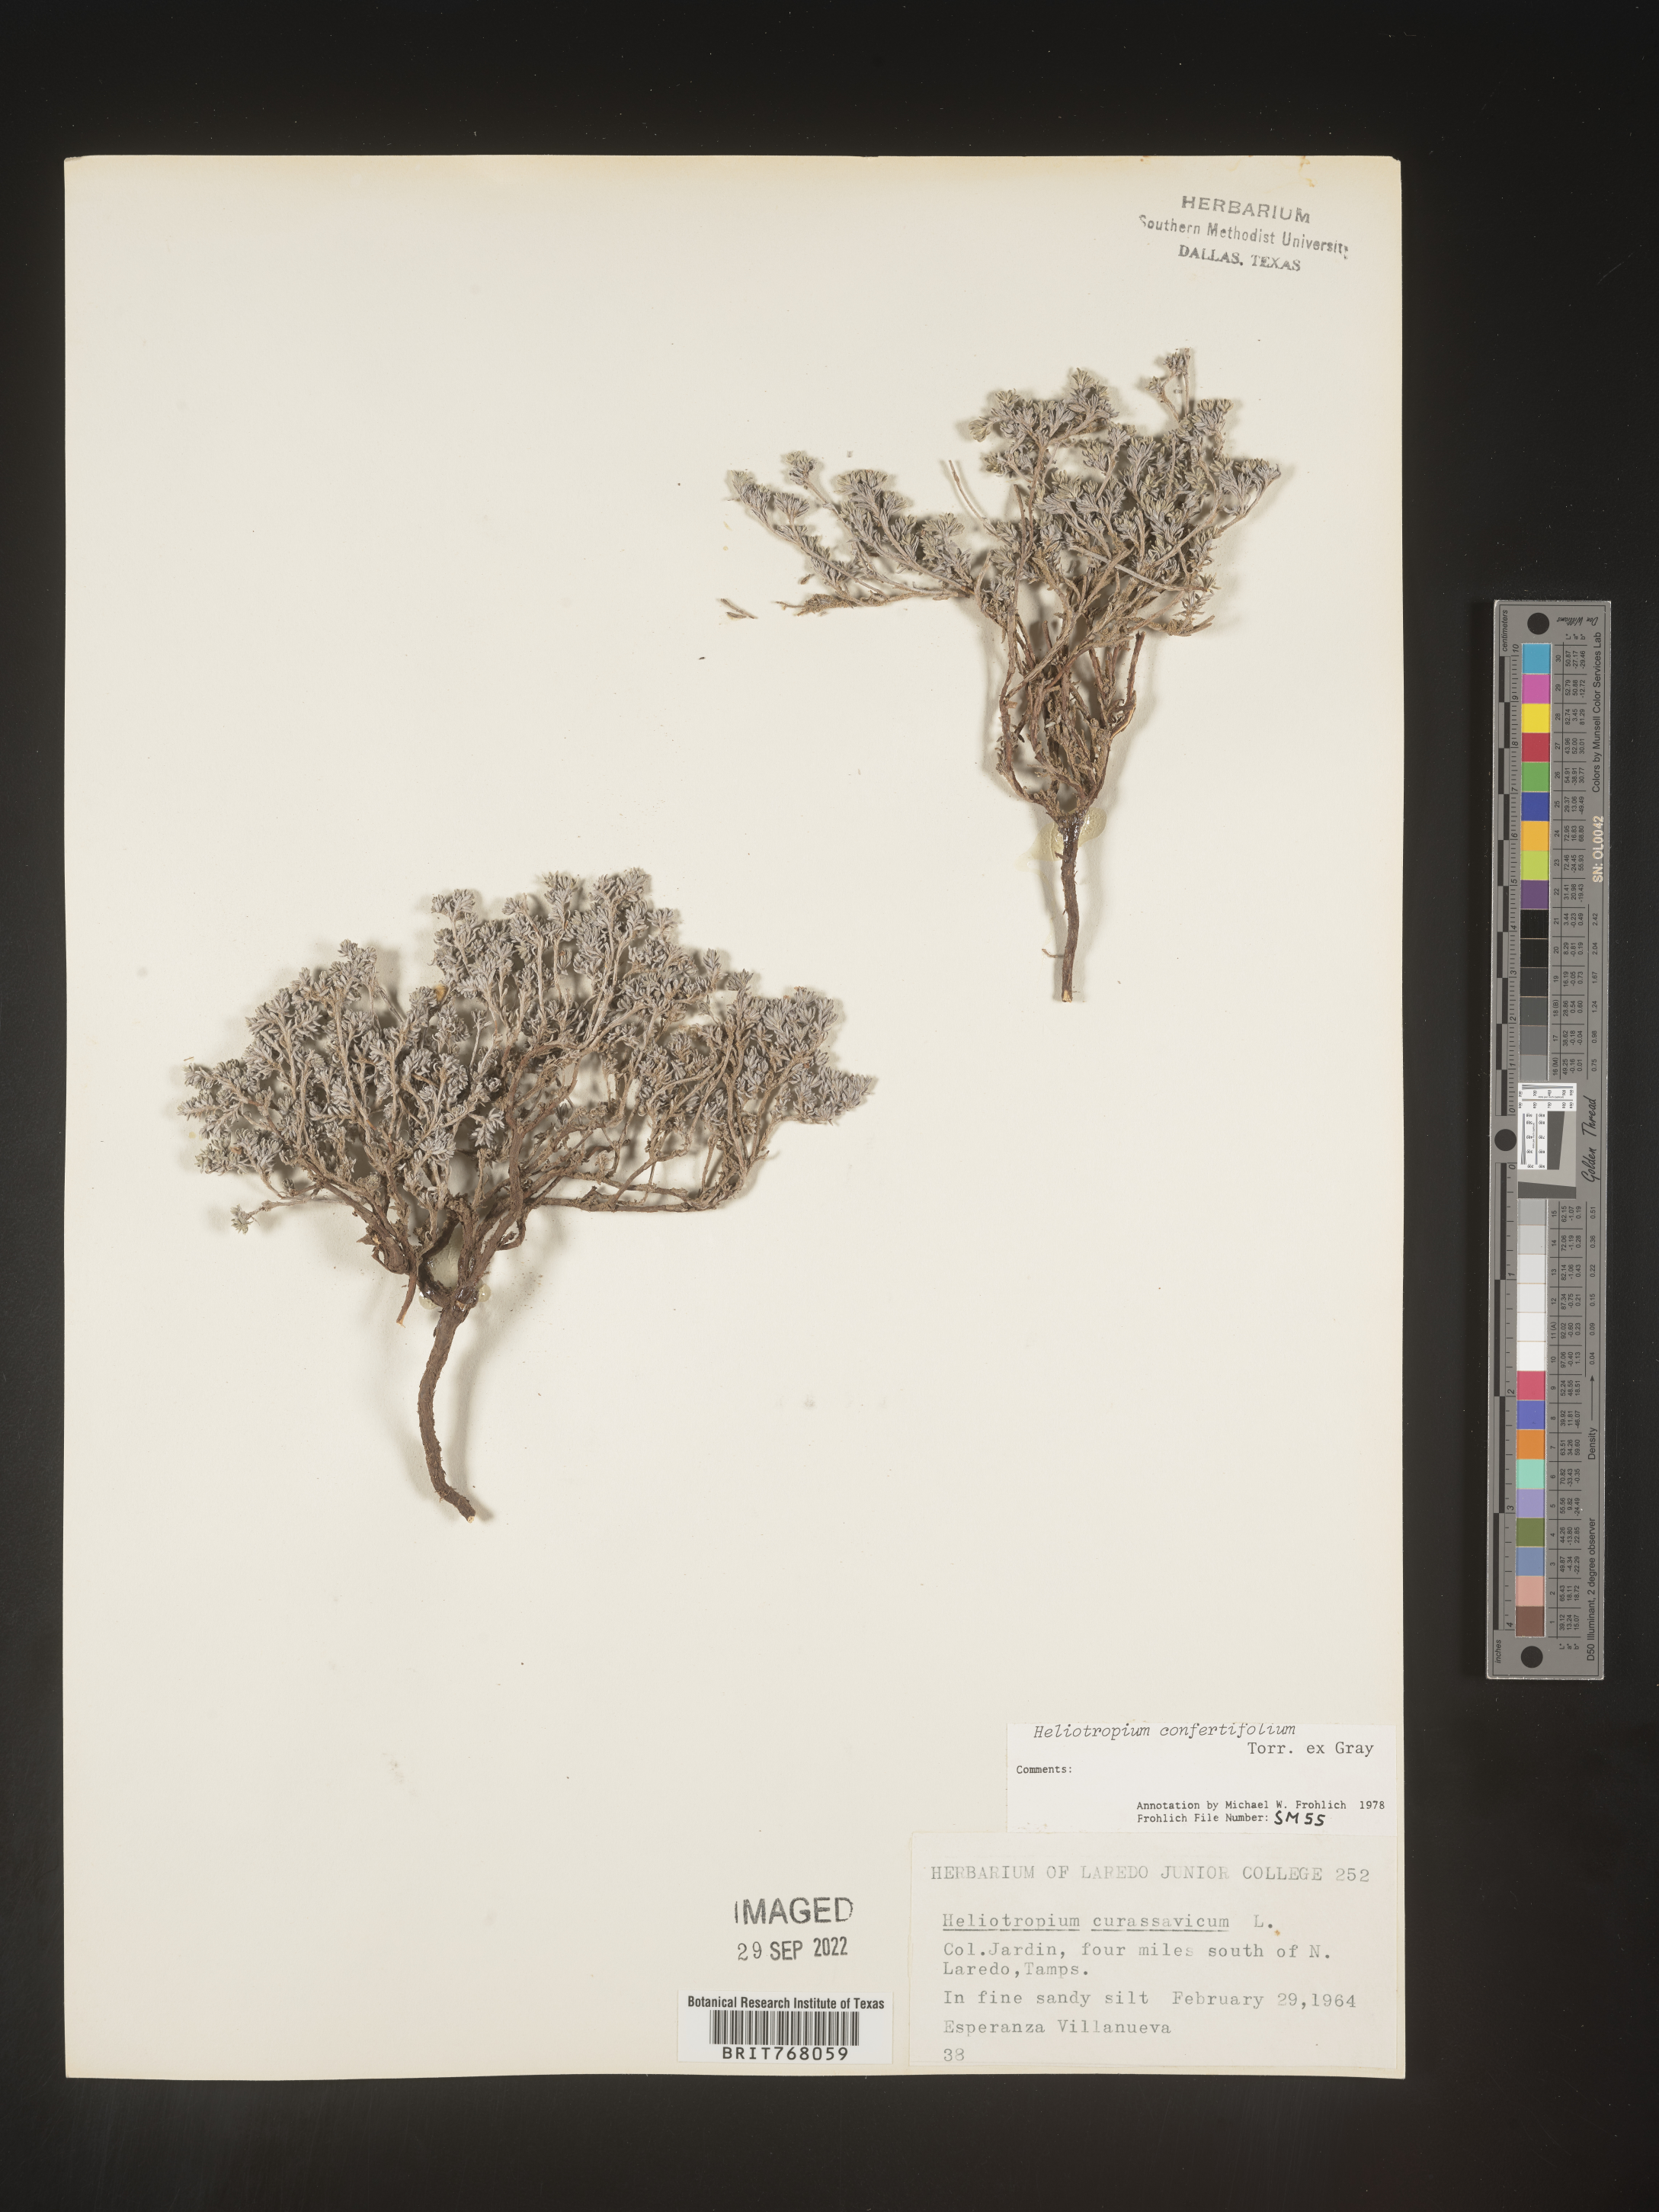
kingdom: Plantae
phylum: Tracheophyta
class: Magnoliopsida
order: Boraginales
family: Heliotropiaceae
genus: Heliotropium
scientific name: Heliotropium
